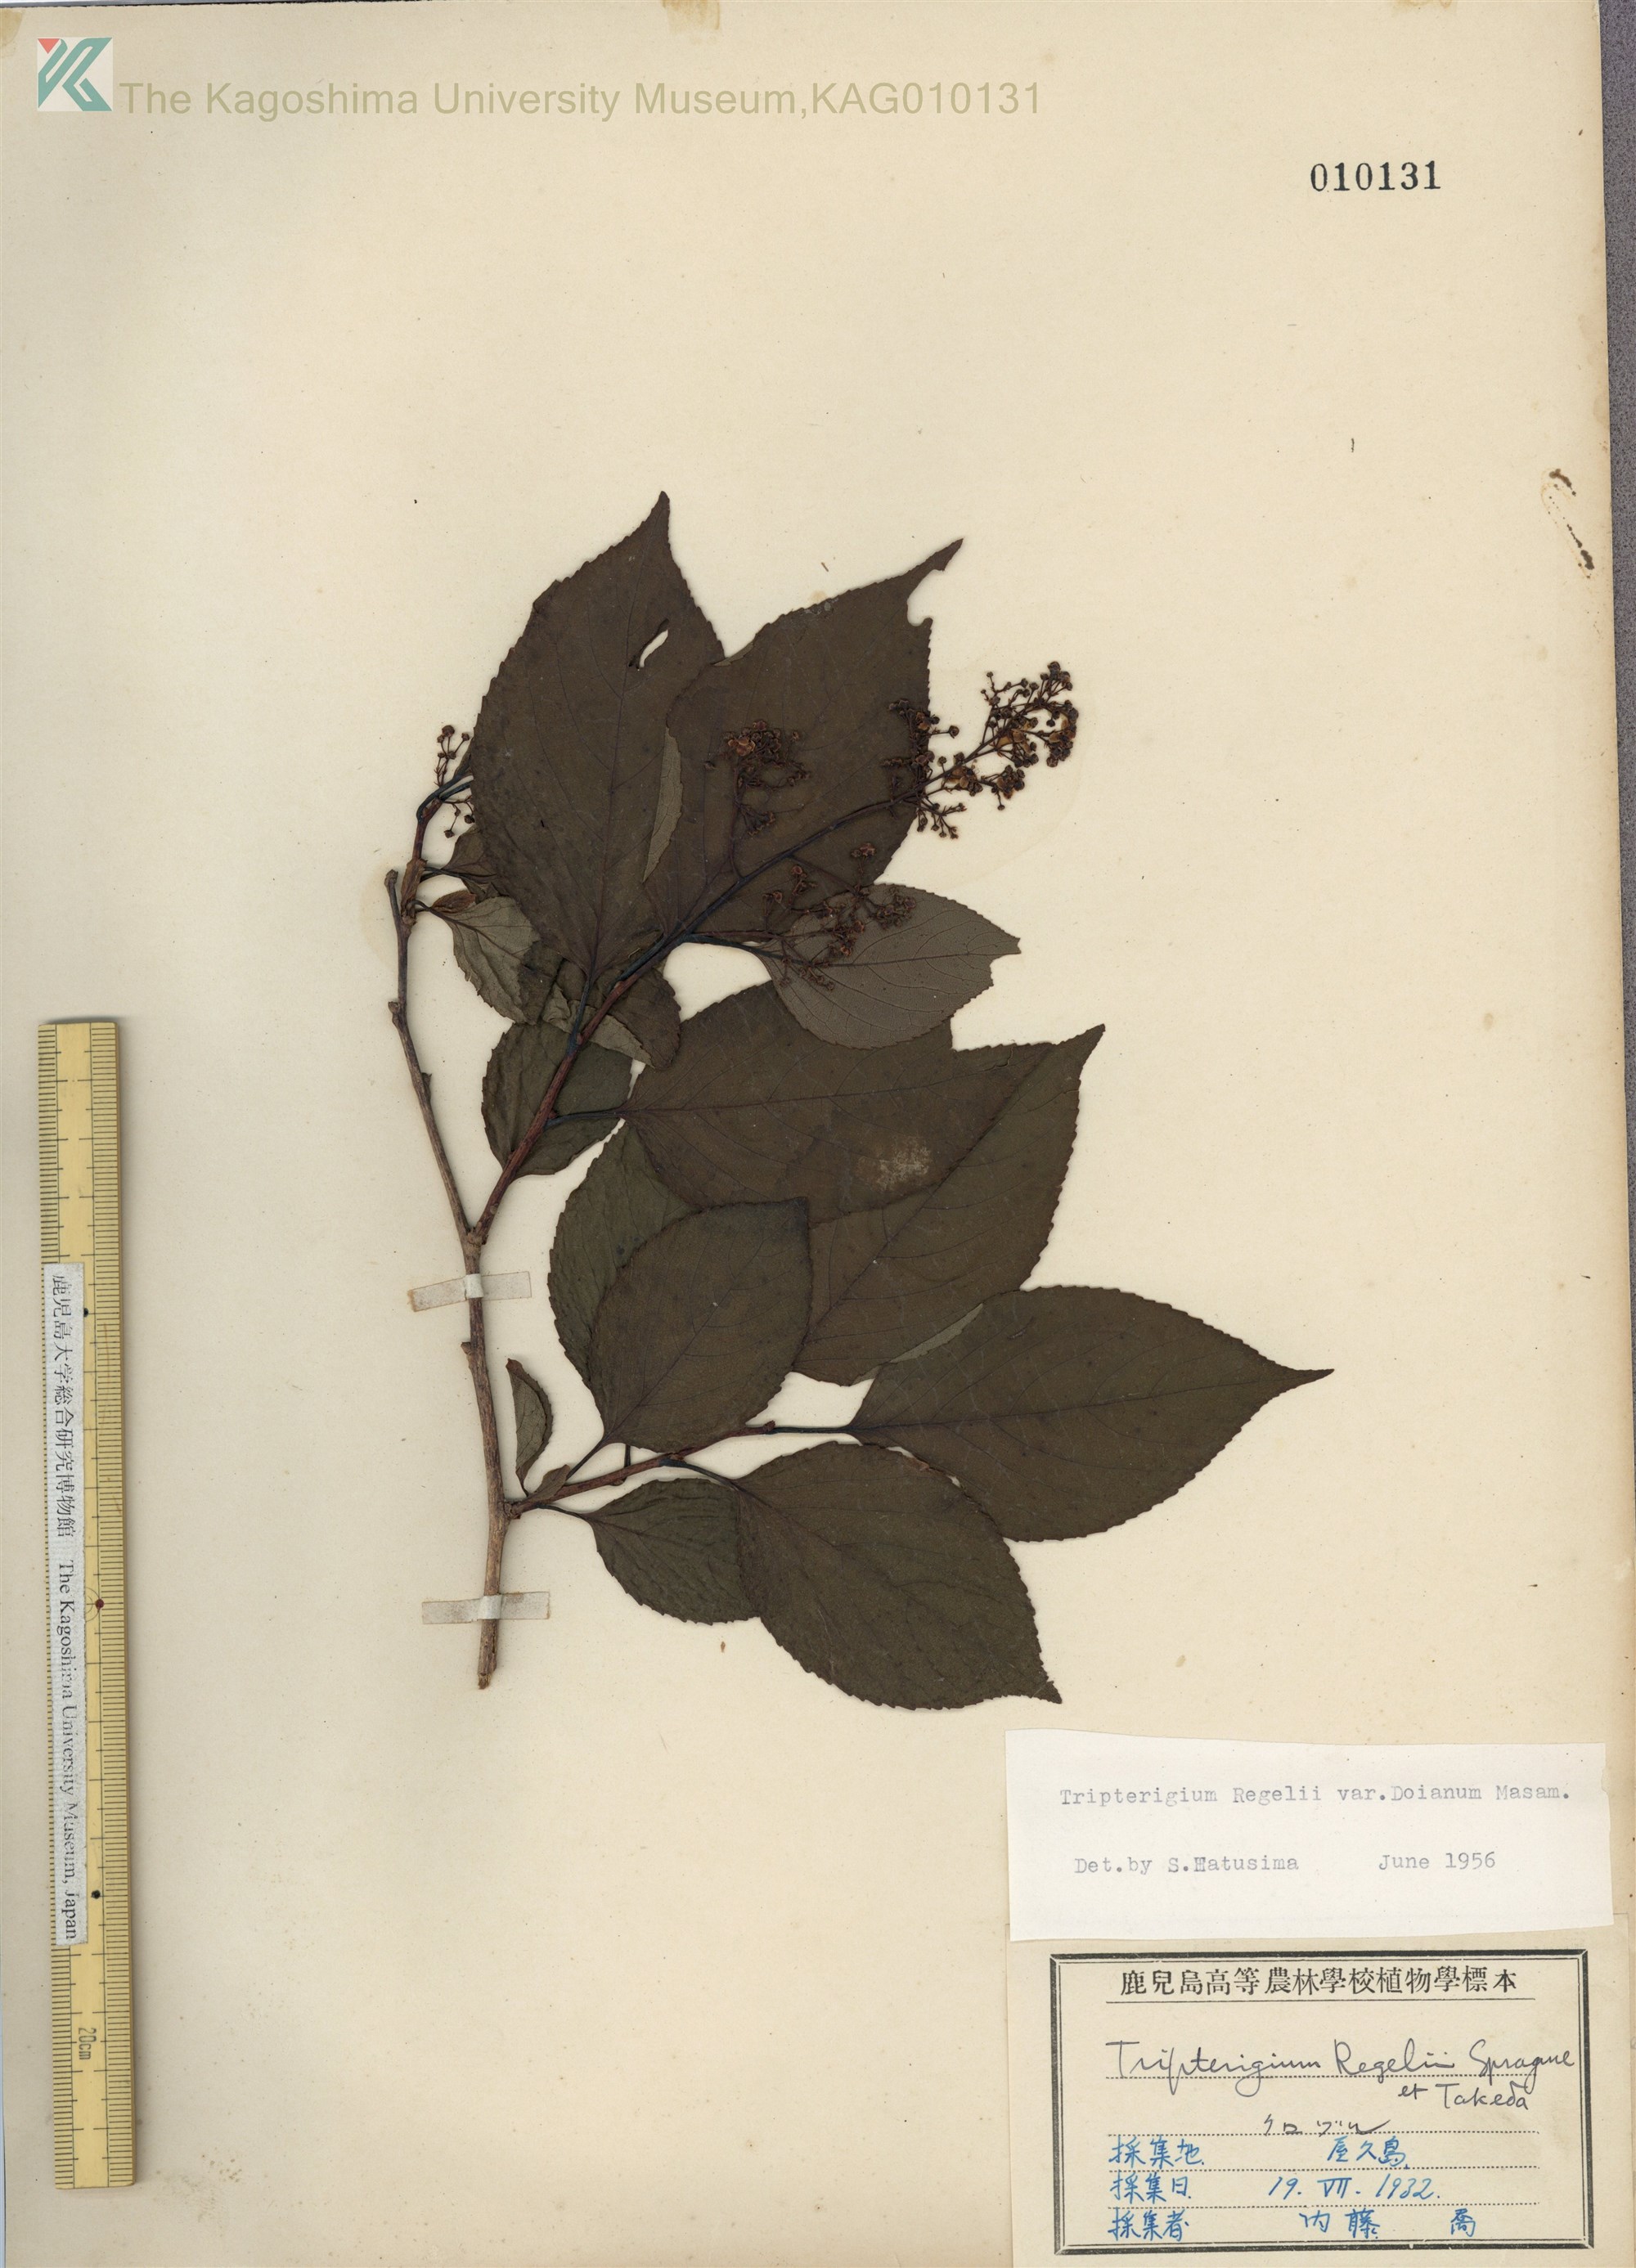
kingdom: Plantae
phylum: Tracheophyta
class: Magnoliopsida
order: Celastrales
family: Celastraceae
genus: Tripterygium
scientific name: Tripterygium doianum
